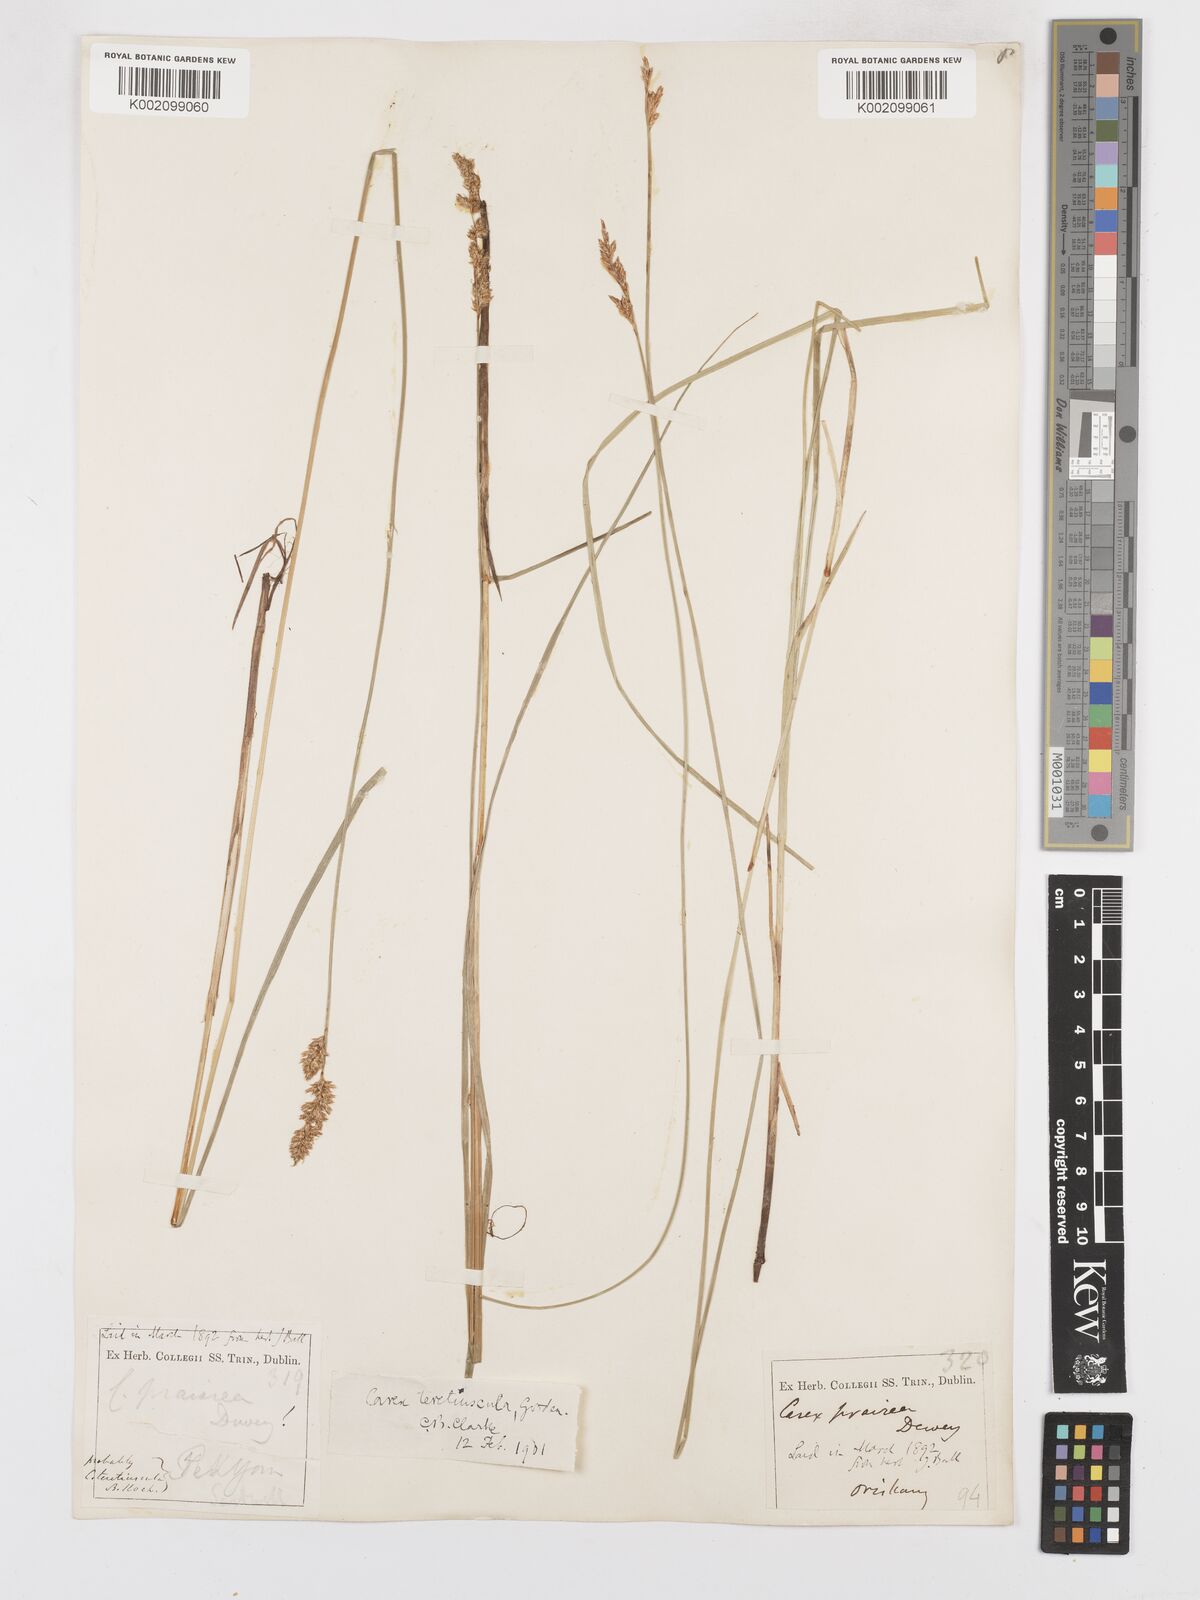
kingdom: Plantae
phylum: Tracheophyta
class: Liliopsida
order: Poales
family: Cyperaceae
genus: Carex
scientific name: Carex diandra
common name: Lesser tussock-sedge
